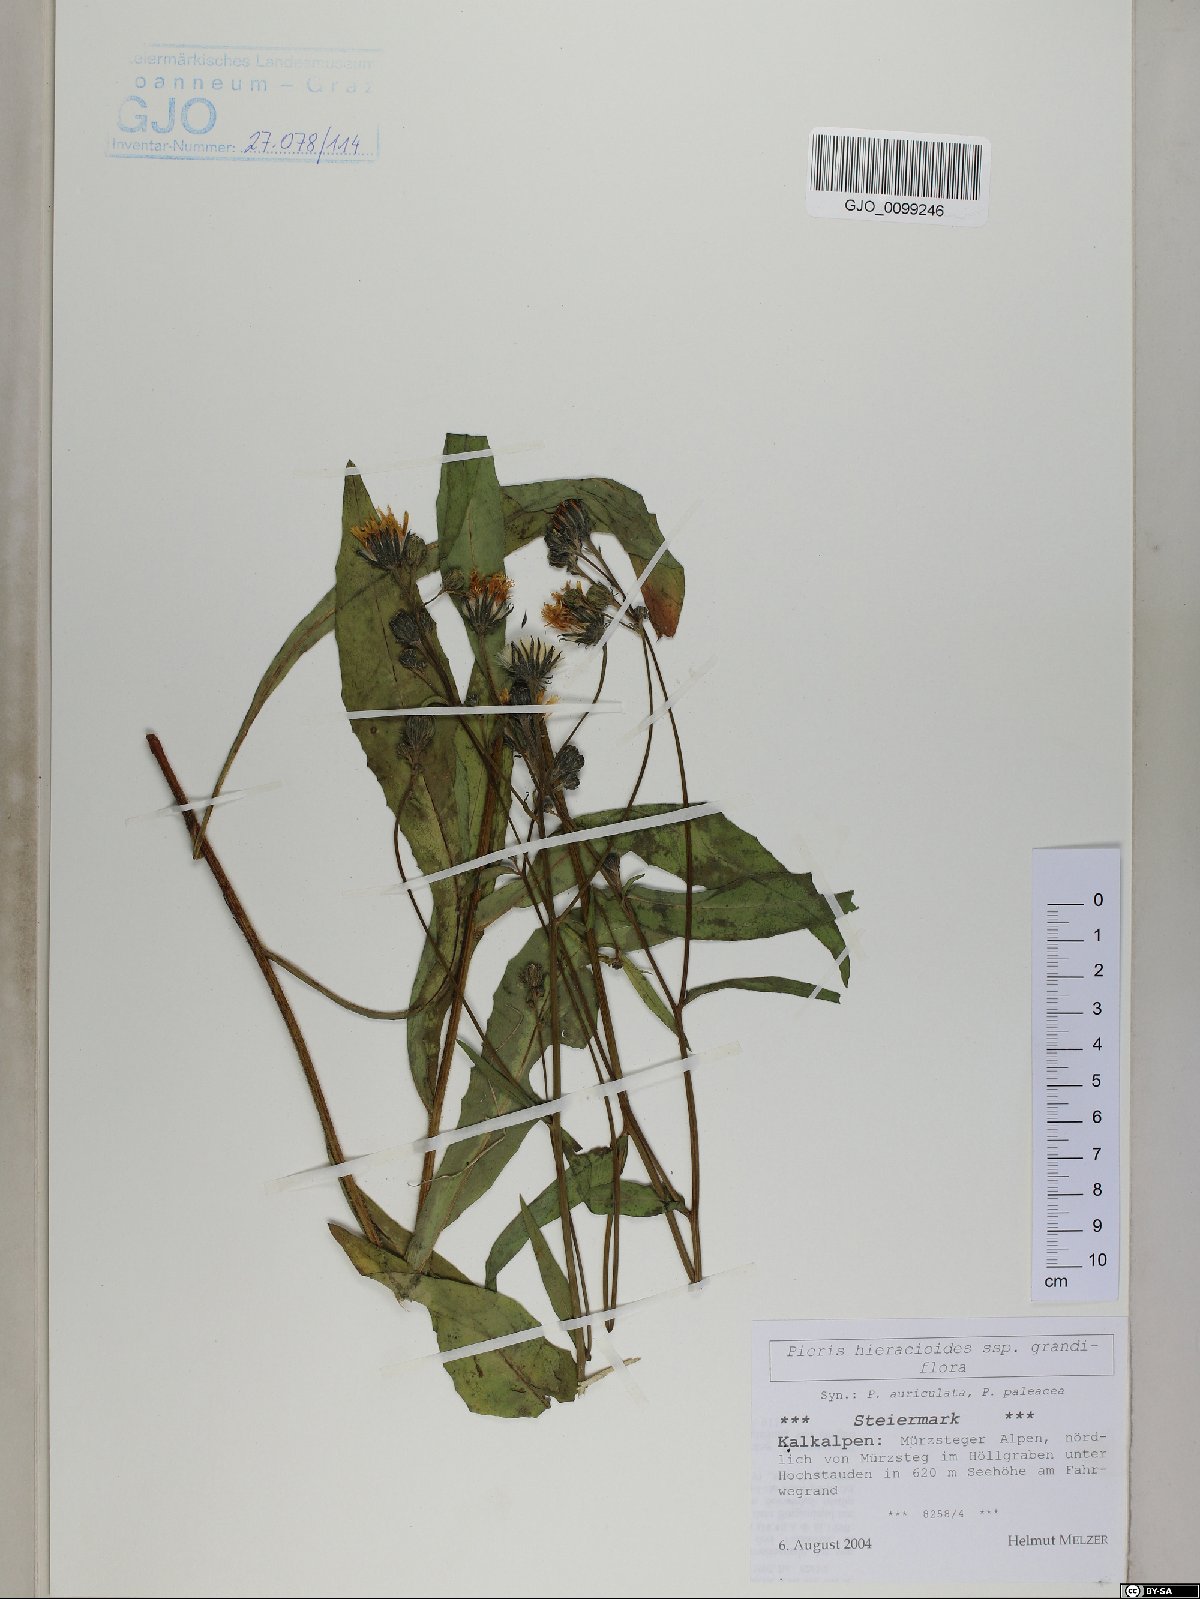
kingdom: Plantae
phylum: Tracheophyta
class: Magnoliopsida
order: Asterales
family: Asteraceae
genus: Picris
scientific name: Picris hieracioides
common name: Hawkweed oxtongue
